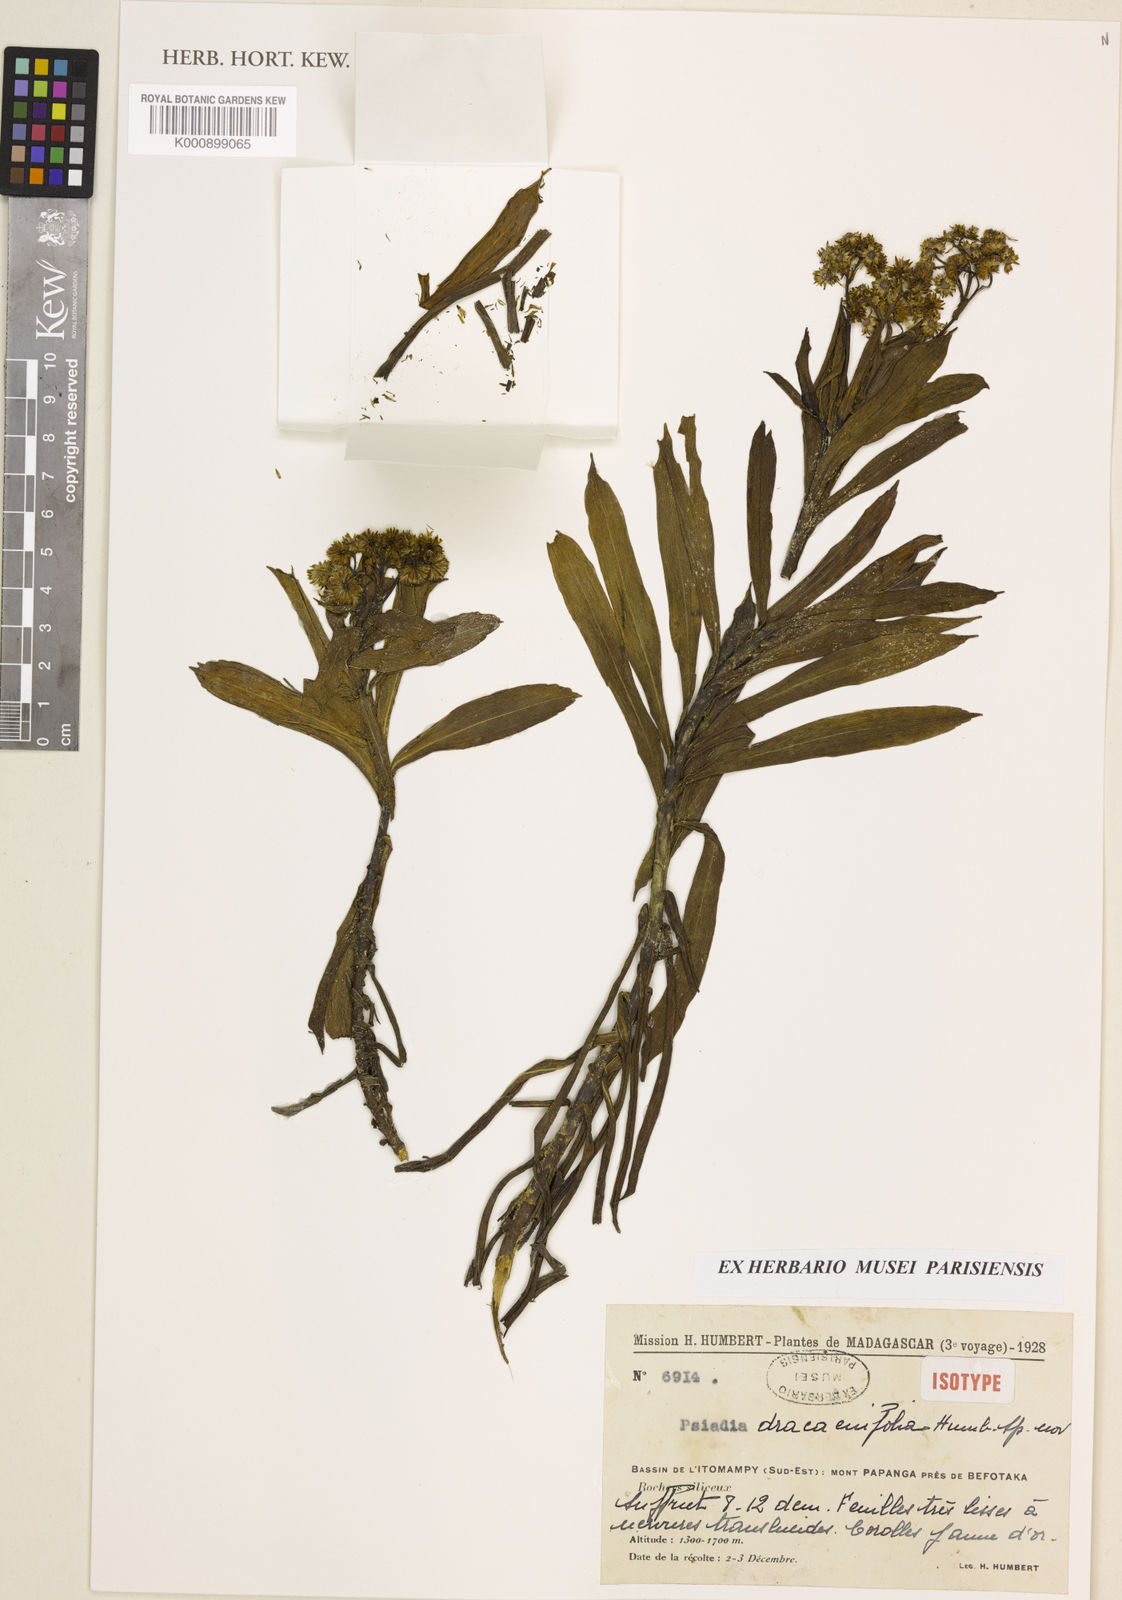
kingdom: Plantae
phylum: Tracheophyta
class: Magnoliopsida
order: Asterales
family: Asteraceae
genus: Psiadia
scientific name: Psiadia dracaenifolia
